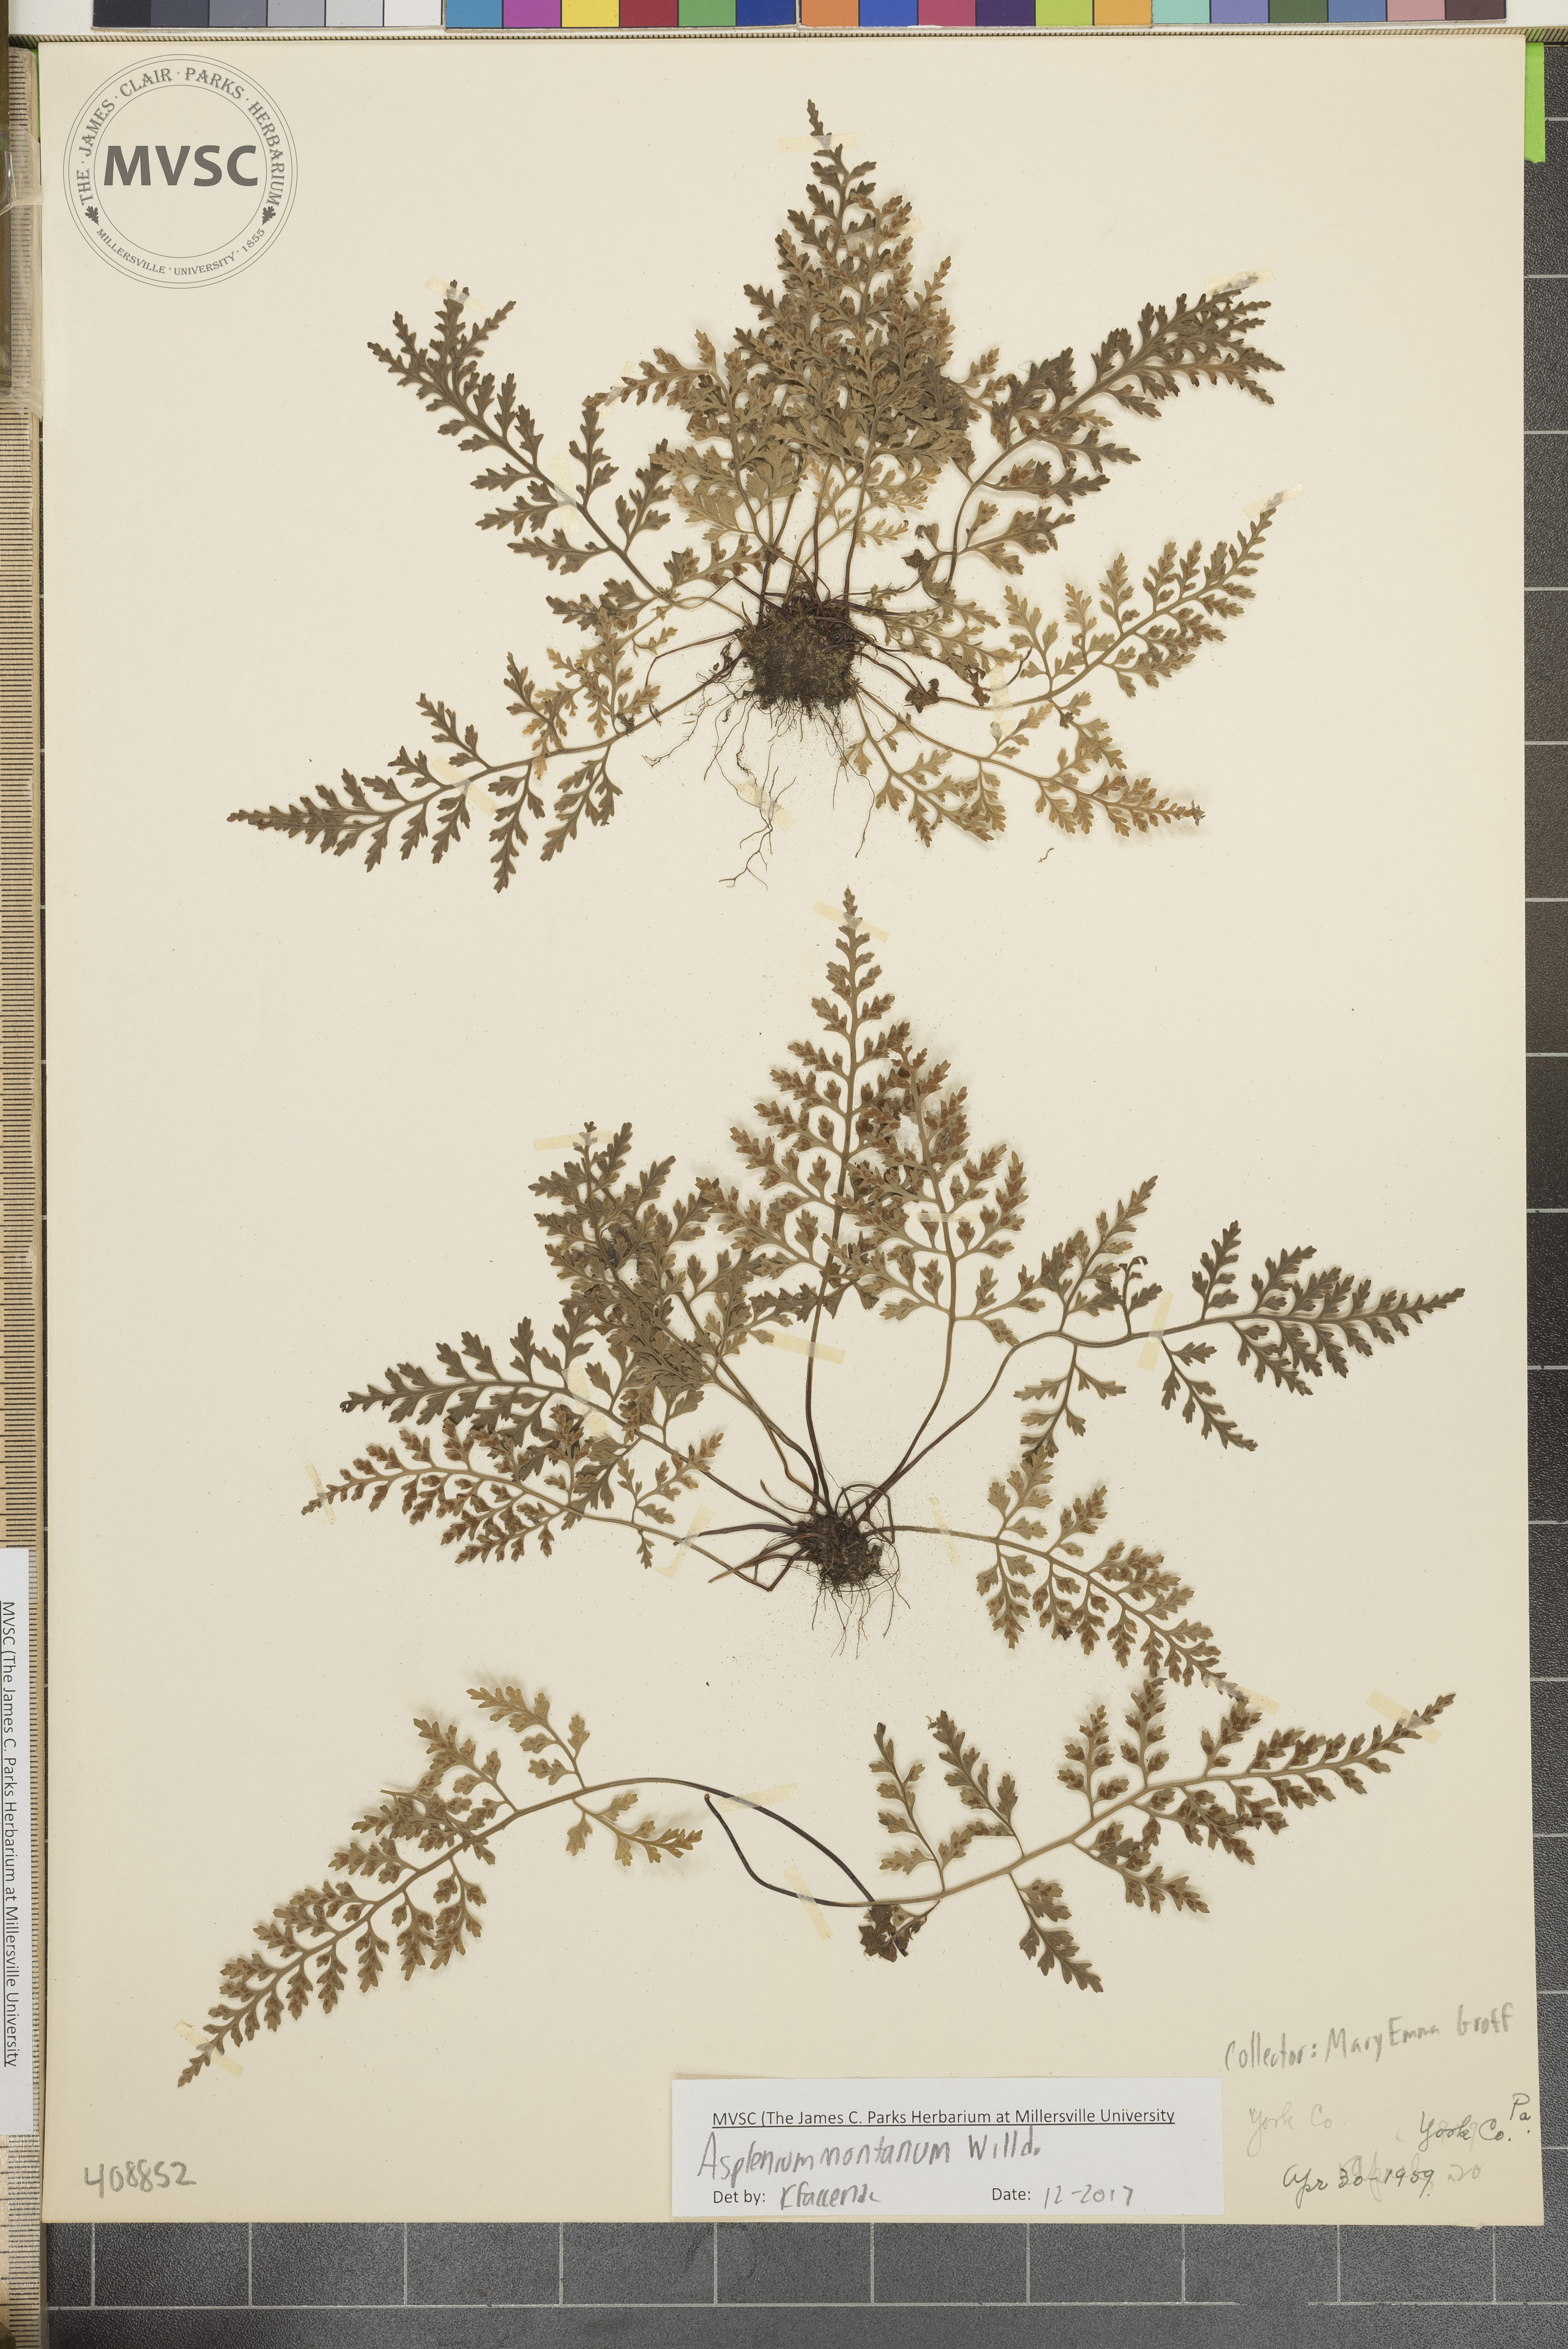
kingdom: Plantae
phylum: Tracheophyta
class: Polypodiopsida
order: Polypodiales
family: Aspleniaceae
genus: Asplenium
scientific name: Asplenium montanum
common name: Mountain spleenwort
